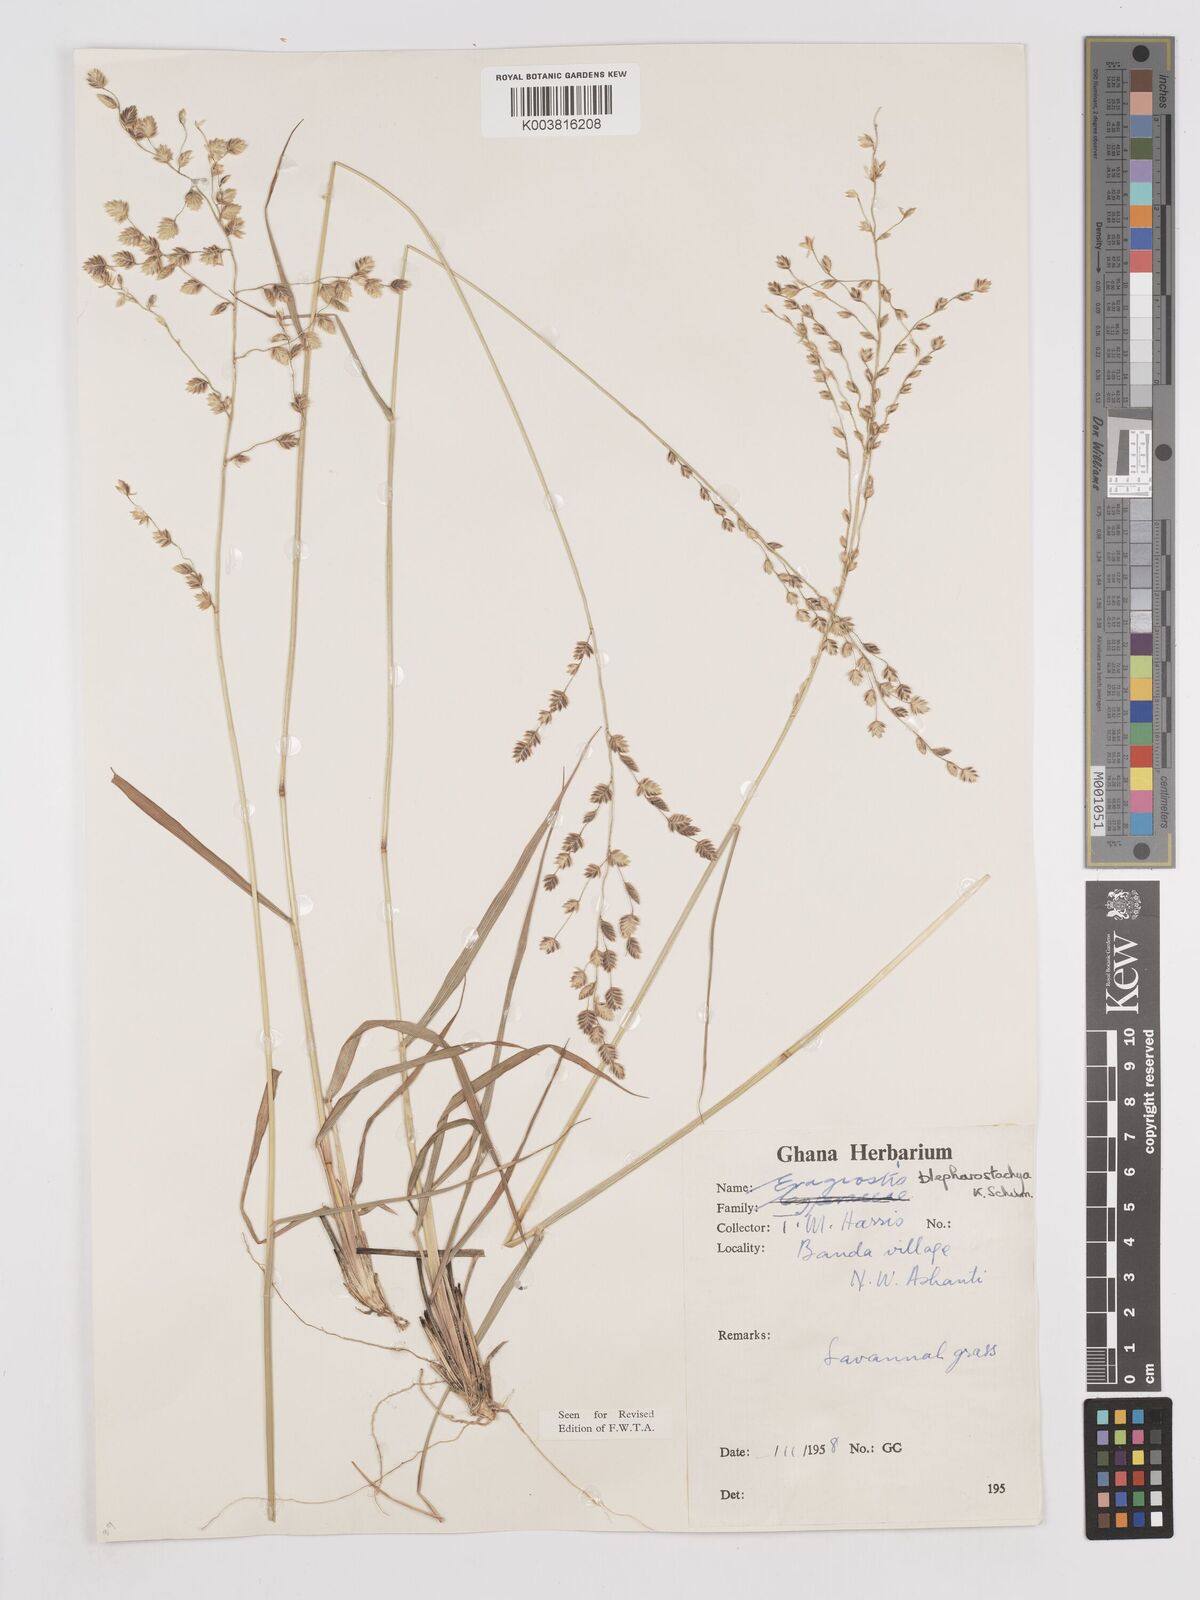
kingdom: Plantae
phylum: Tracheophyta
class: Liliopsida
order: Poales
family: Poaceae
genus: Eragrostis
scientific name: Eragrostis blepharostachya
